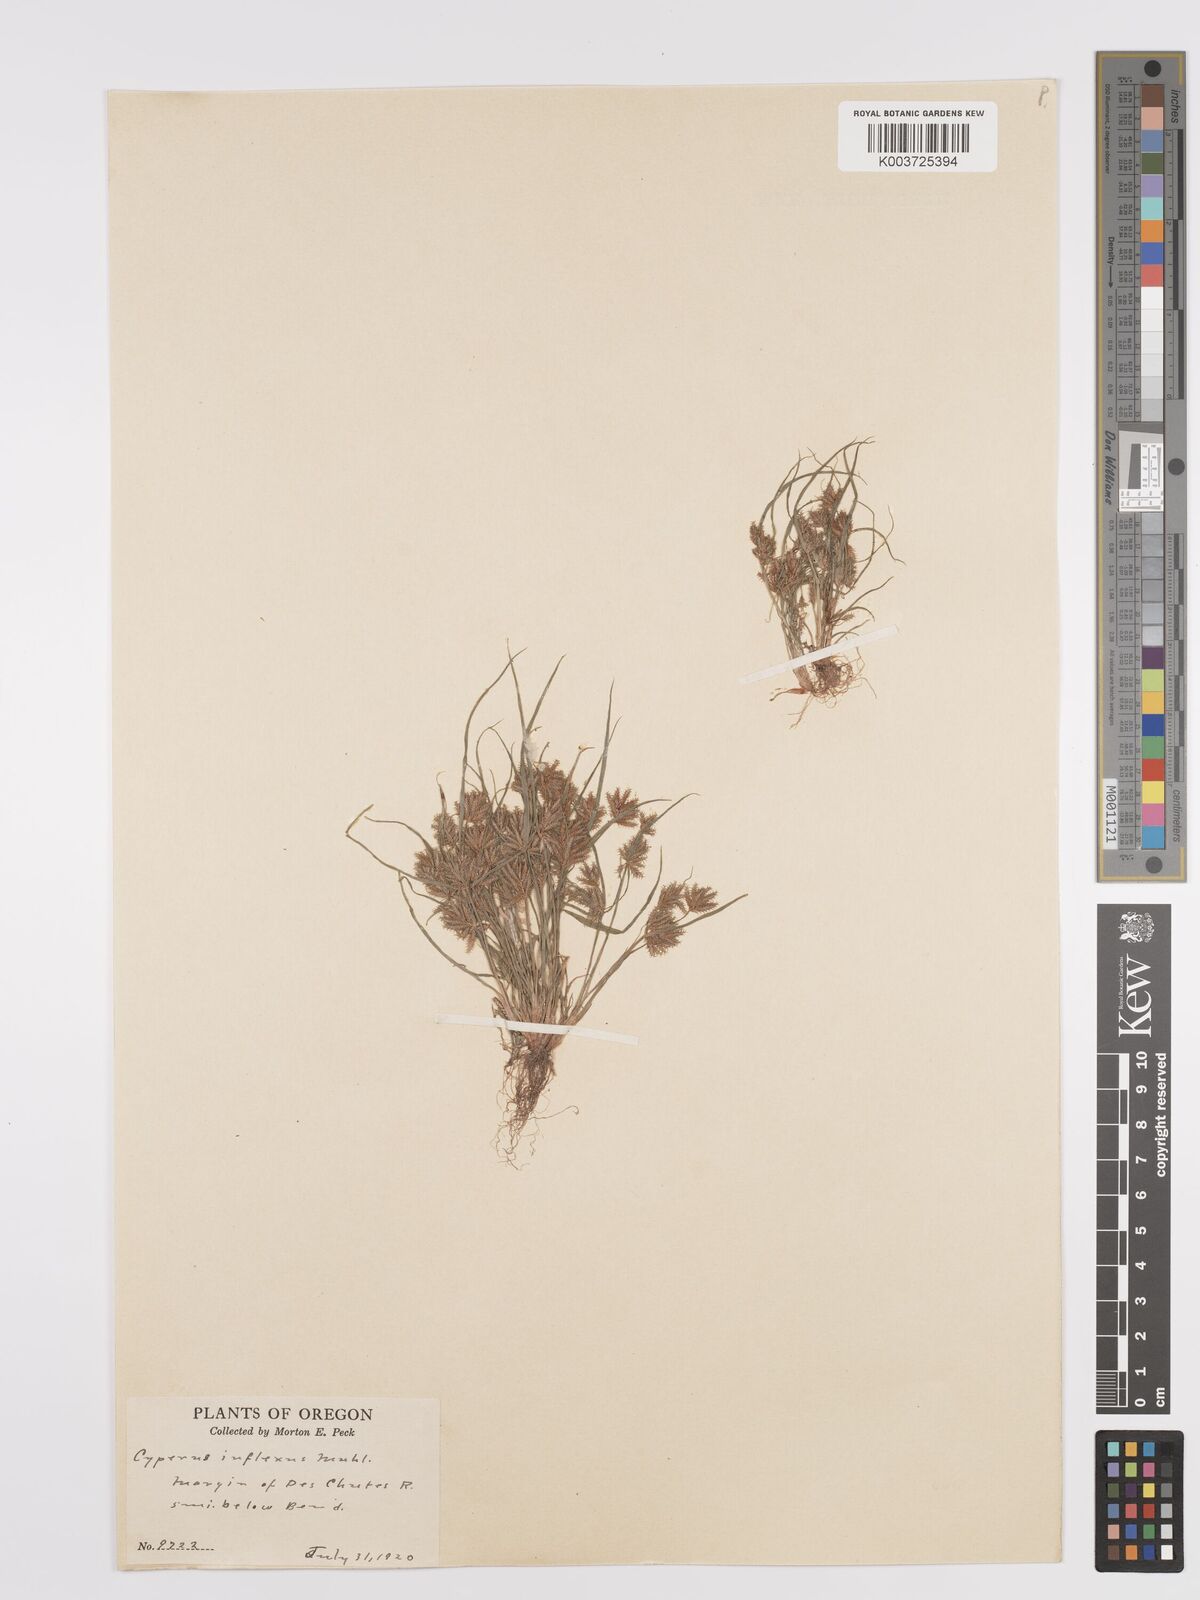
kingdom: Plantae
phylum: Tracheophyta
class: Liliopsida
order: Poales
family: Cyperaceae
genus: Cyperus
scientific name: Cyperus squarrosus
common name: Awned cyperus
